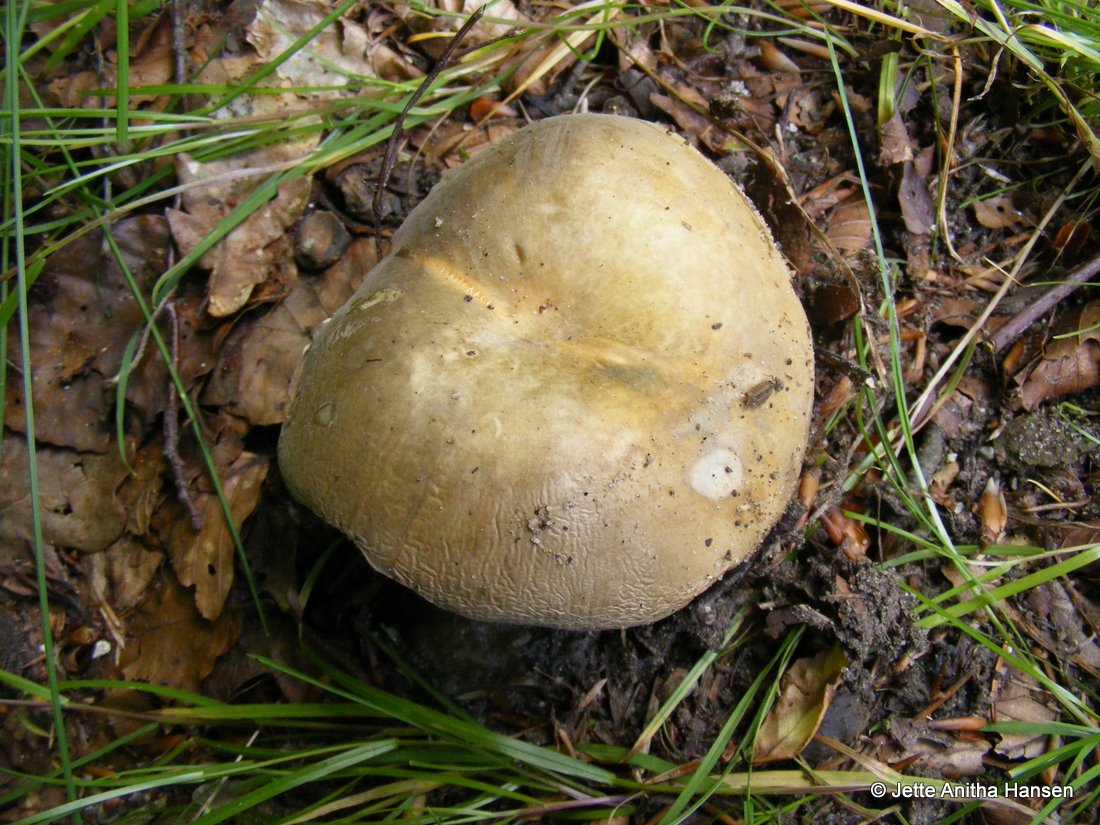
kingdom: Fungi
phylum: Basidiomycota
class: Agaricomycetes
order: Russulales
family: Russulaceae
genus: Russula
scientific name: Russula cyanoxantha
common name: broget skørhat
